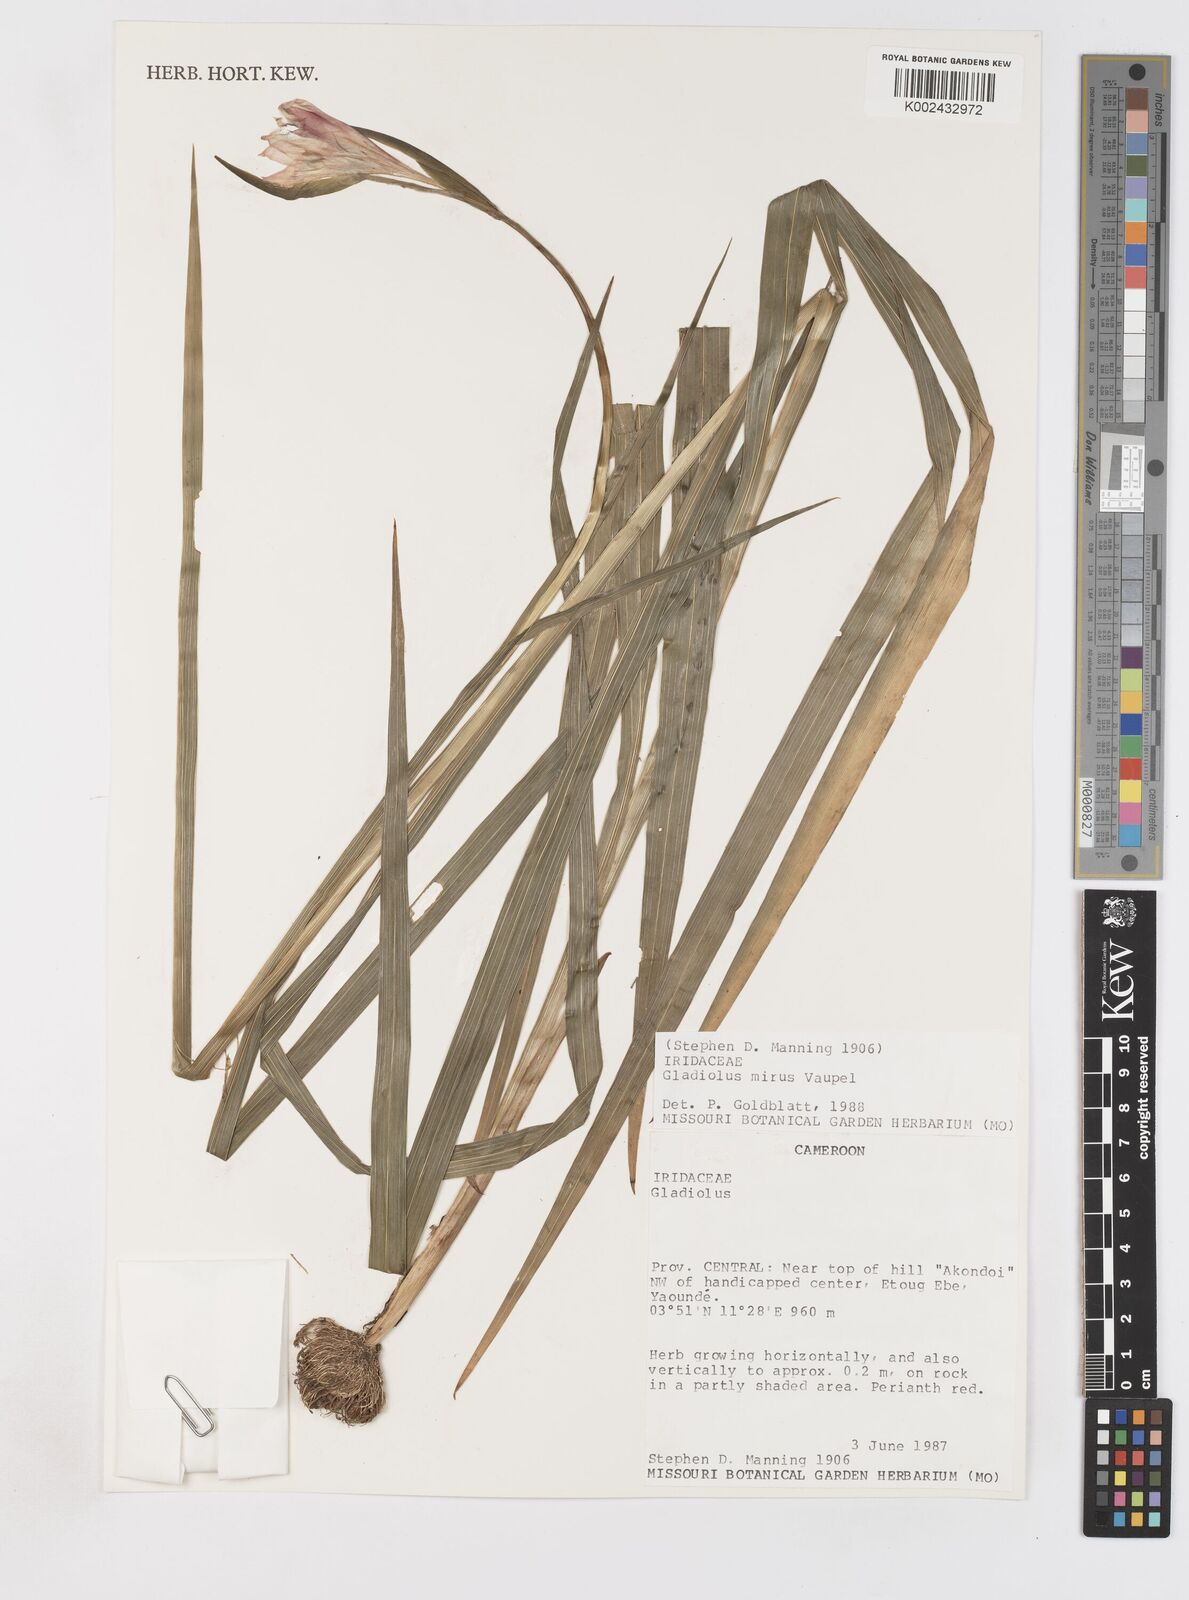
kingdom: Plantae
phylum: Tracheophyta
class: Liliopsida
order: Asparagales
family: Iridaceae
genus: Gladiolus
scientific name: Gladiolus mirus
